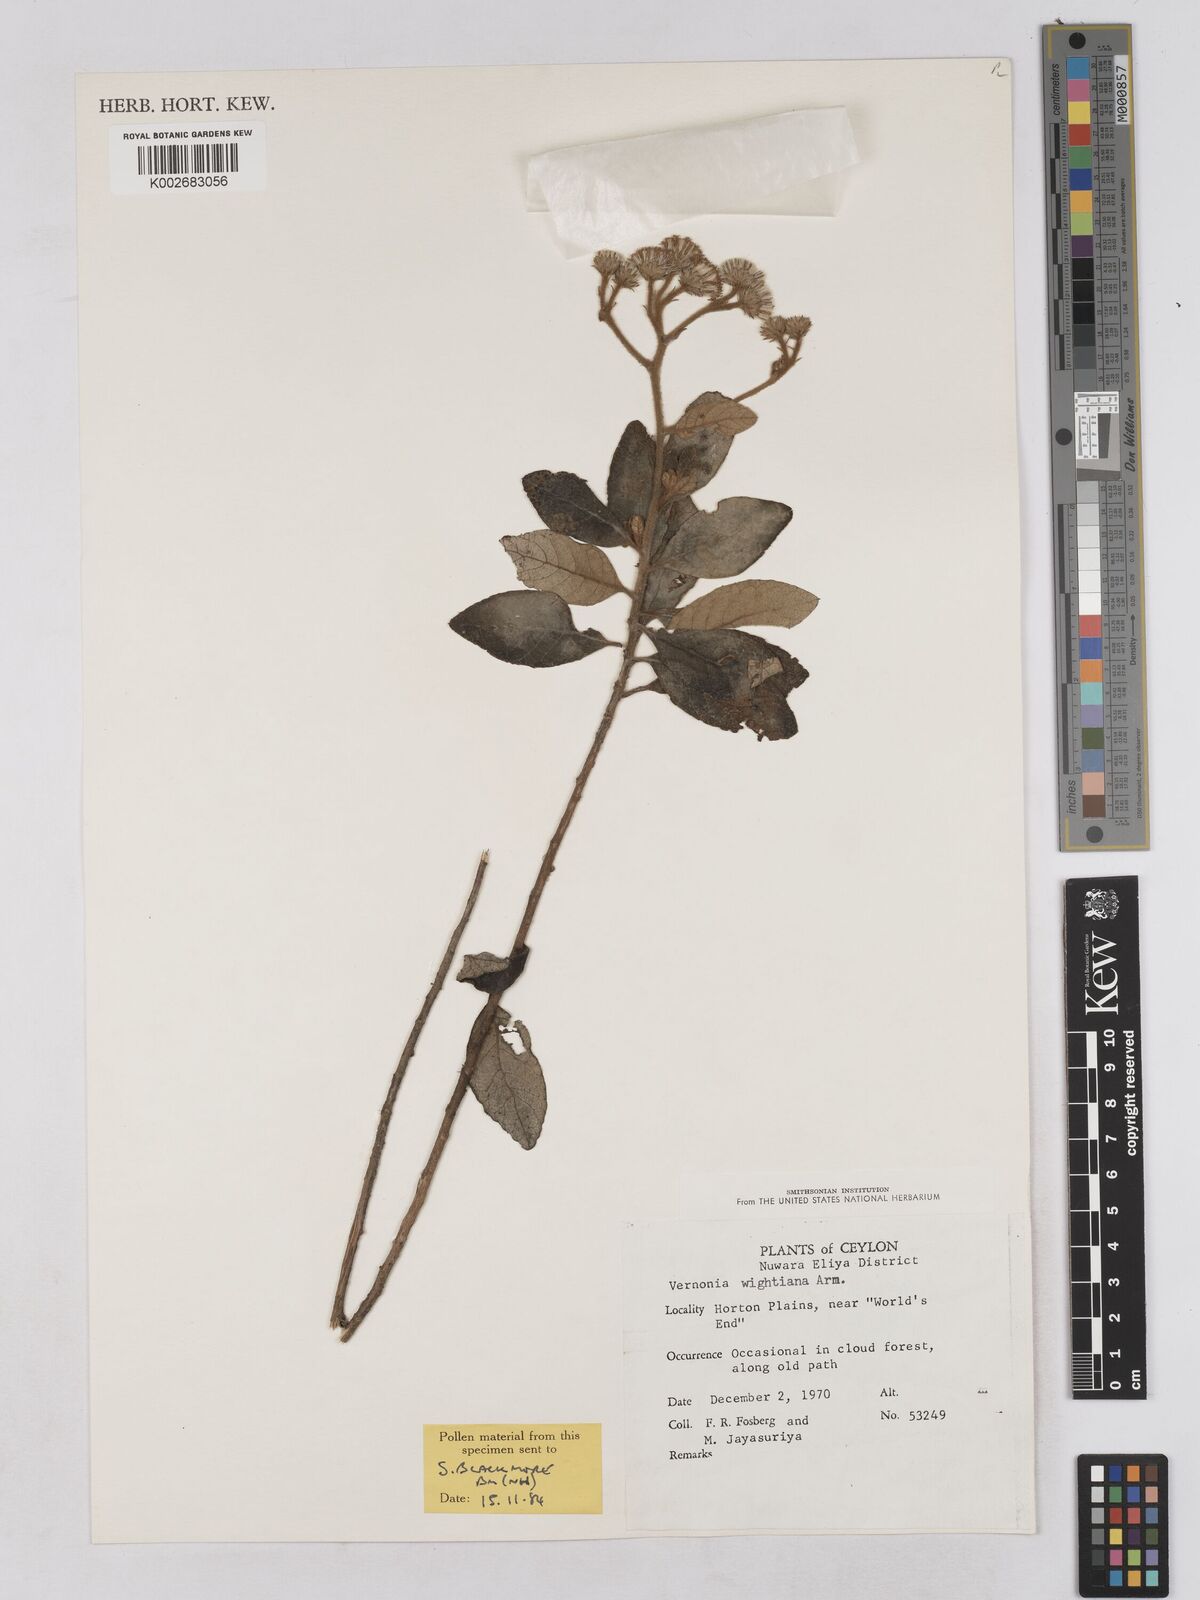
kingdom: Plantae
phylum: Tracheophyta
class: Magnoliopsida
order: Asterales
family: Asteraceae
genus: Uniyala
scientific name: Uniyala wightiana
